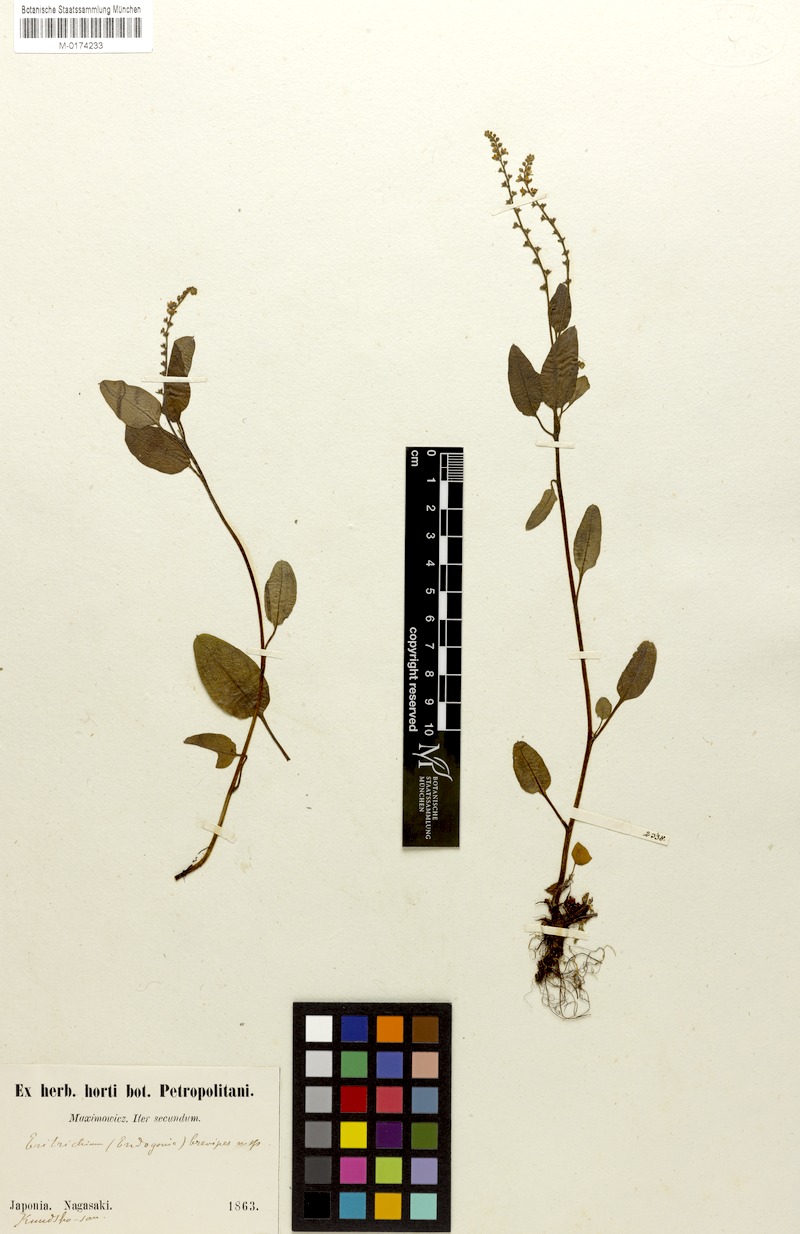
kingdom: Plantae
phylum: Tracheophyta
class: Magnoliopsida
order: Boraginales
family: Boraginaceae
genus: Trigonotis
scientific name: Trigonotis brevipes
